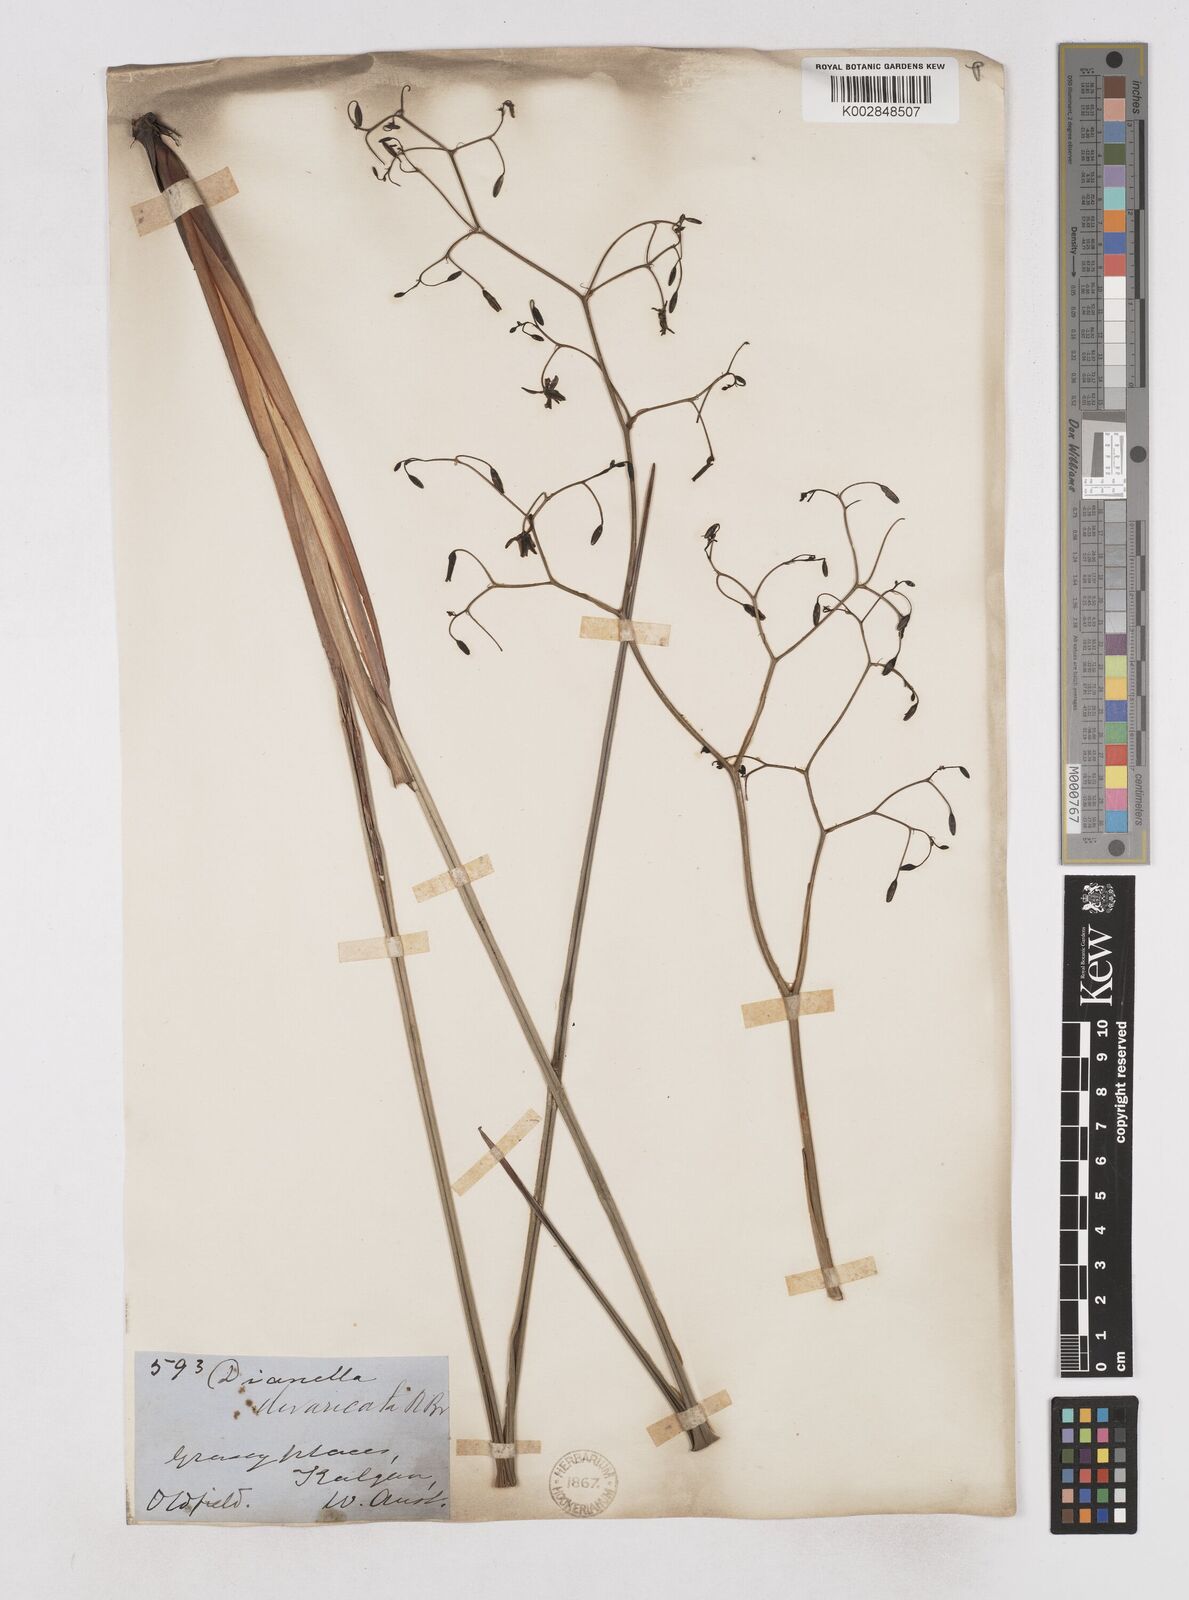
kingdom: Plantae
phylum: Tracheophyta
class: Liliopsida
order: Asparagales
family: Asphodelaceae
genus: Dianella
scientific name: Dianella revoluta
